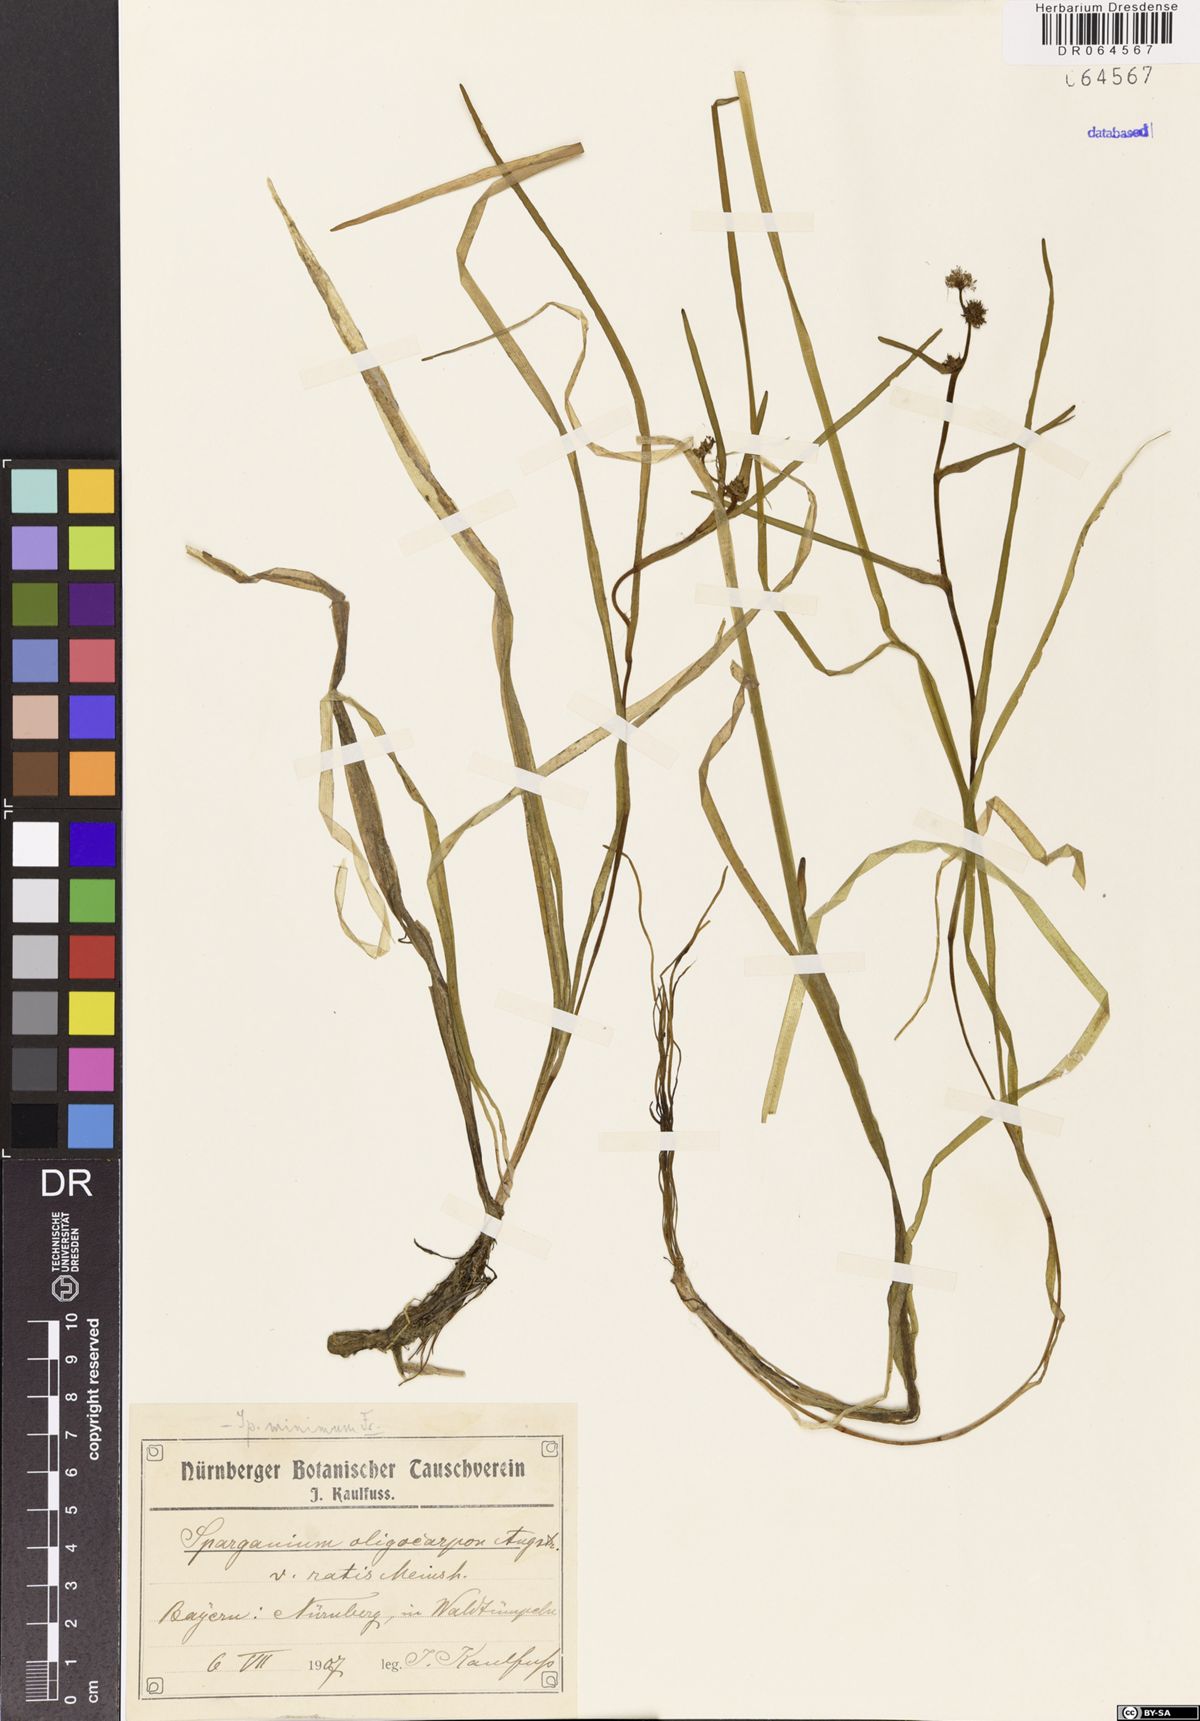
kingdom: Plantae
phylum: Tracheophyta
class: Liliopsida
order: Poales
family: Typhaceae
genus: Sparganium
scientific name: Sparganium oligocarpon
